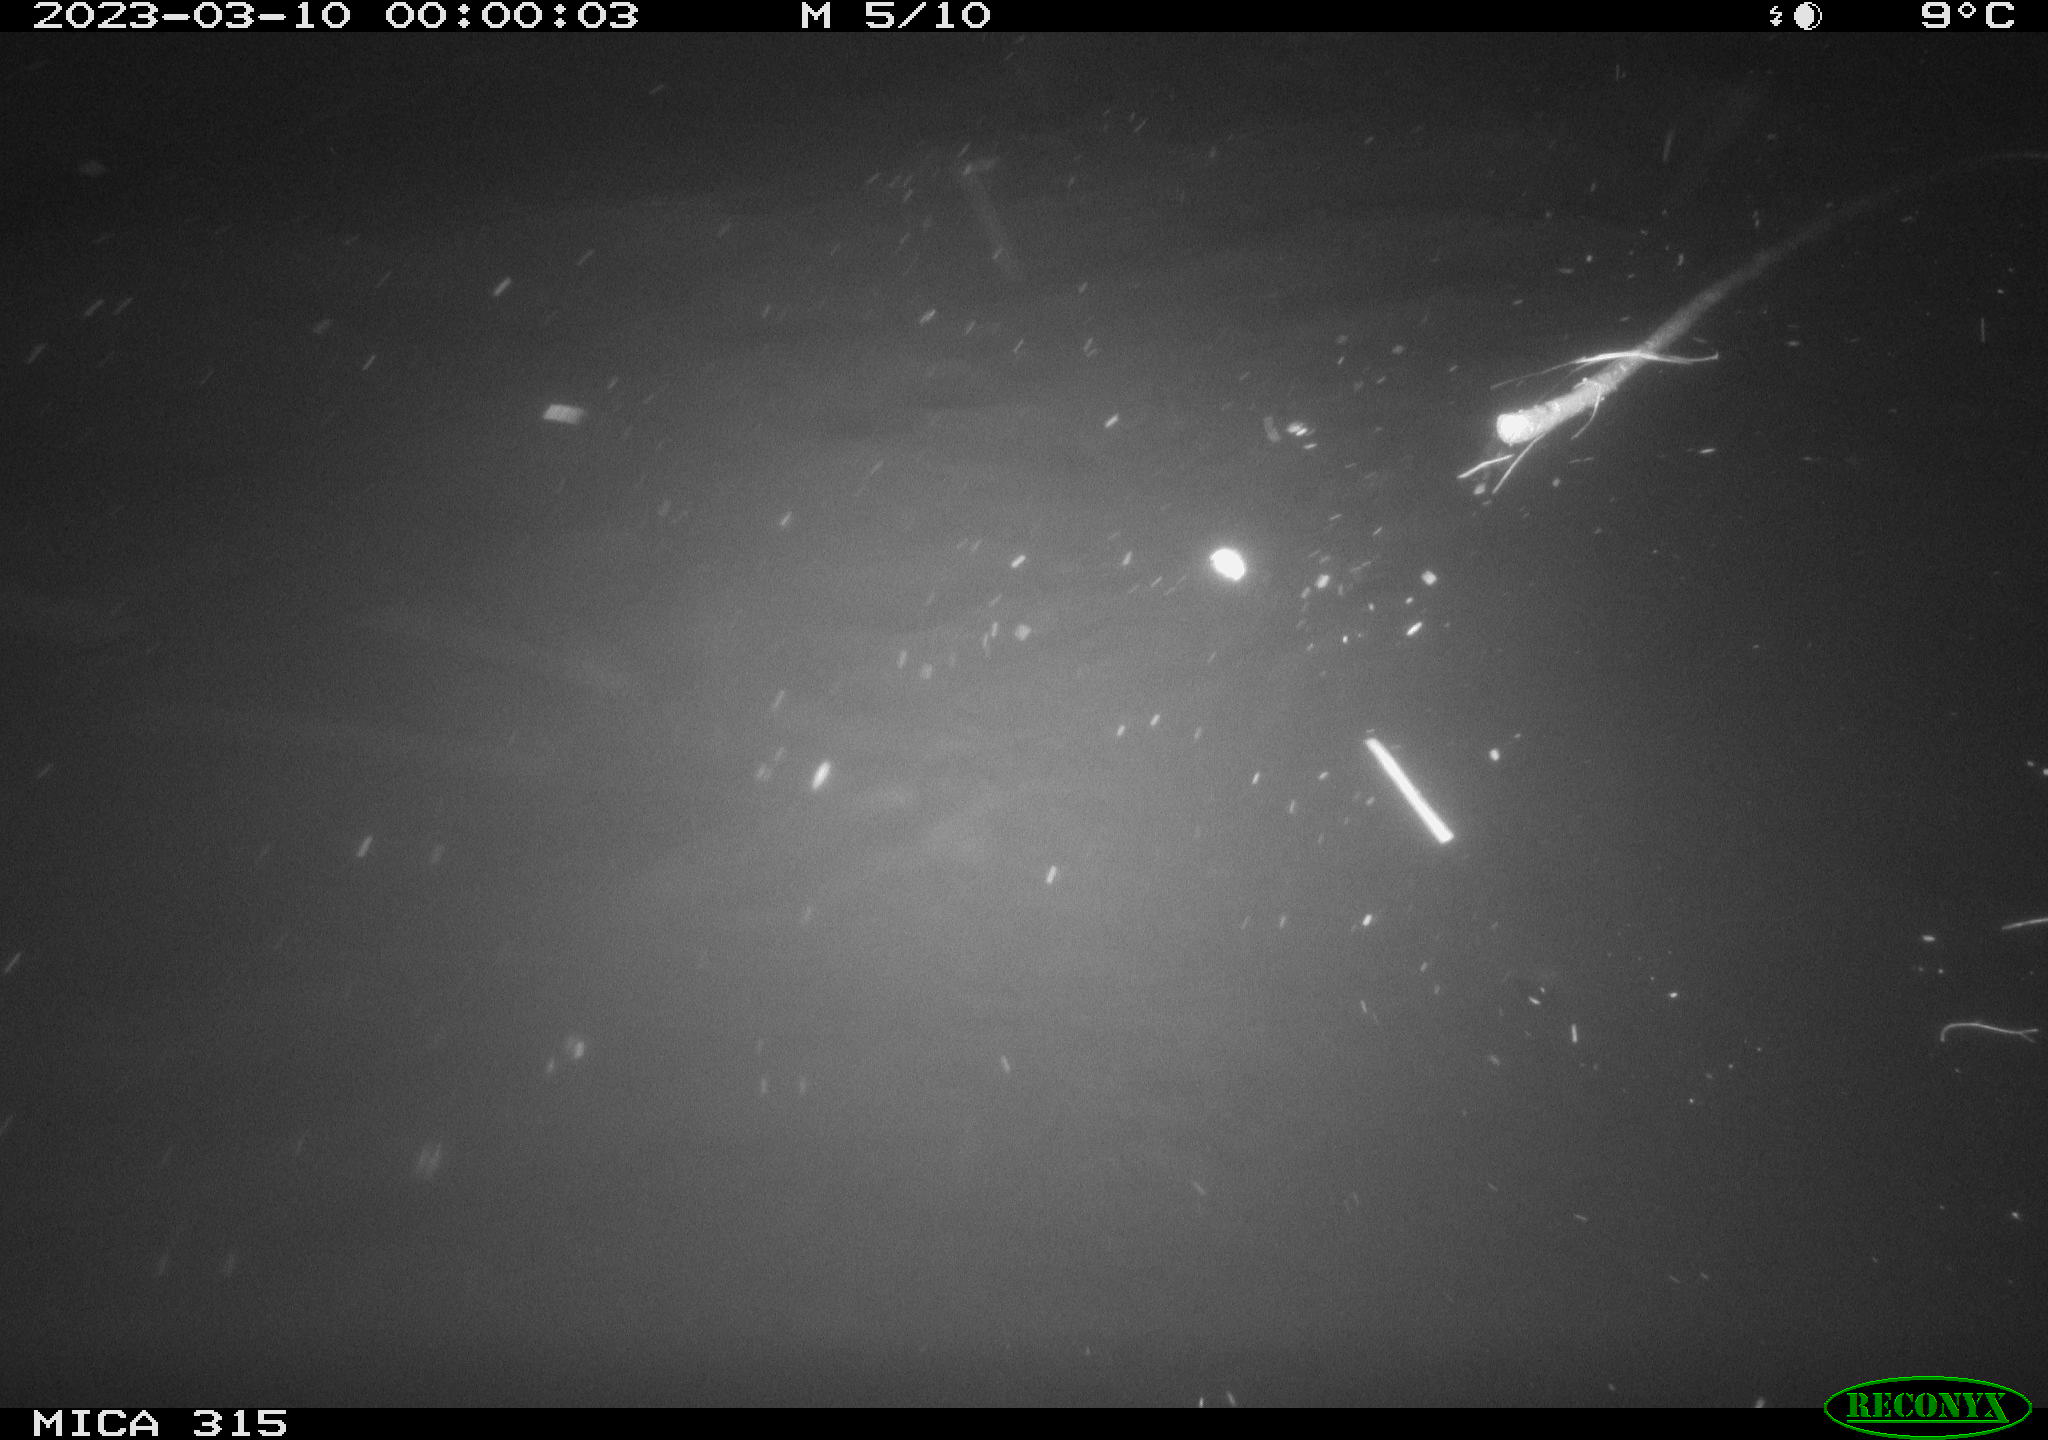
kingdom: Animalia
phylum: Chordata
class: Aves
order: Anseriformes
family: Anatidae
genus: Anas
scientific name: Anas
